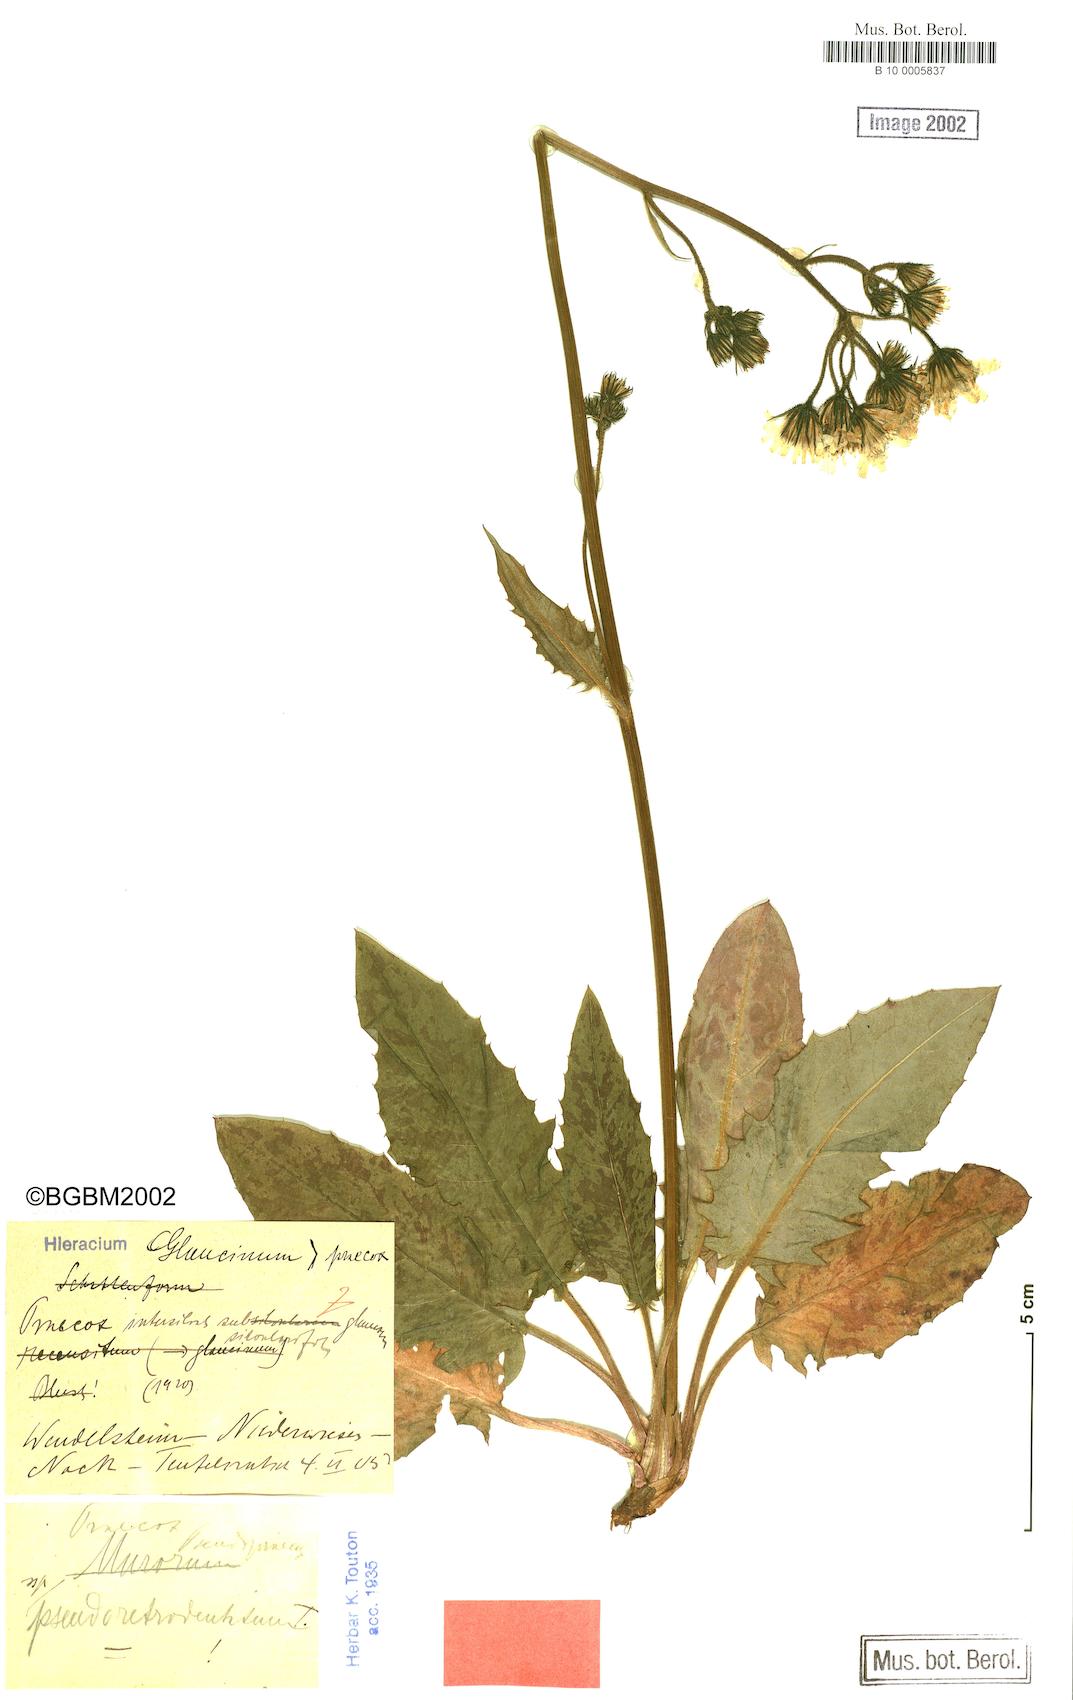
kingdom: Plantae
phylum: Tracheophyta
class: Magnoliopsida
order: Asterales
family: Asteraceae
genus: Hieracium
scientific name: Hieracium murorum
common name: Wall hawkweed
